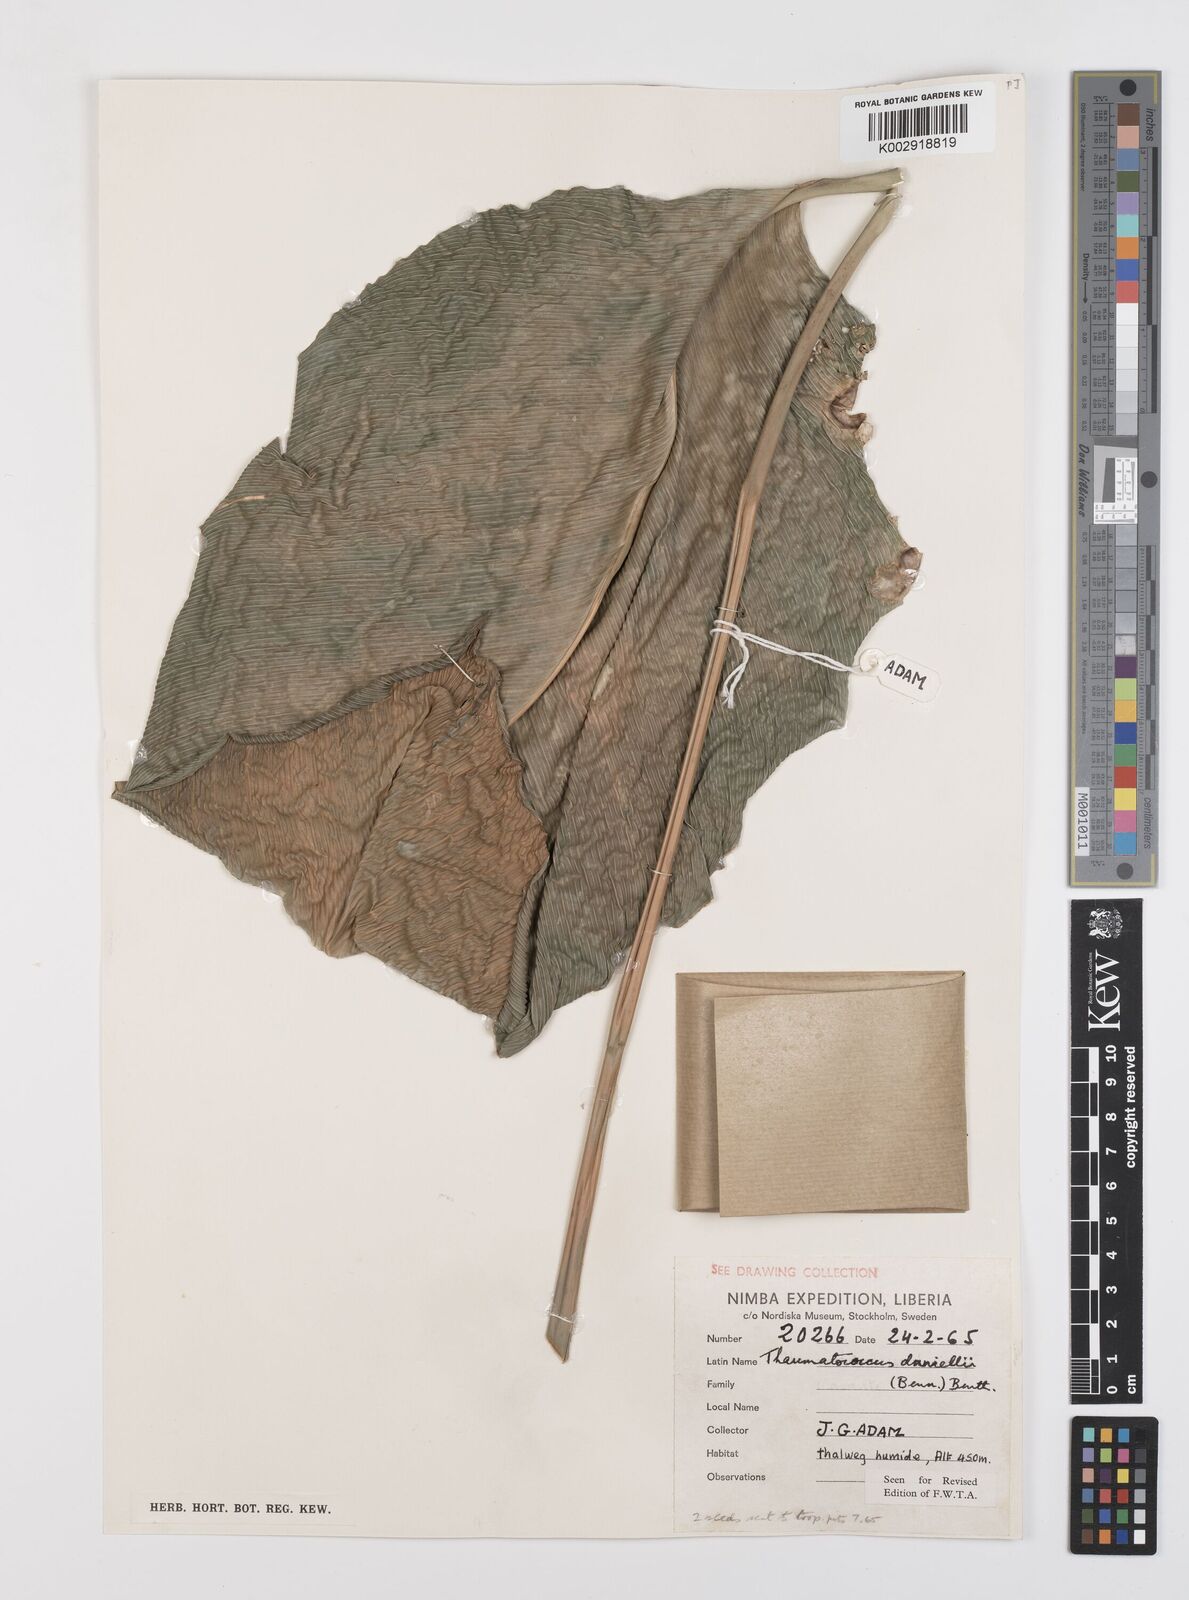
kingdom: Plantae
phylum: Tracheophyta
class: Liliopsida
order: Zingiberales
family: Marantaceae
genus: Thaumatococcus
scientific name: Thaumatococcus daniellii
